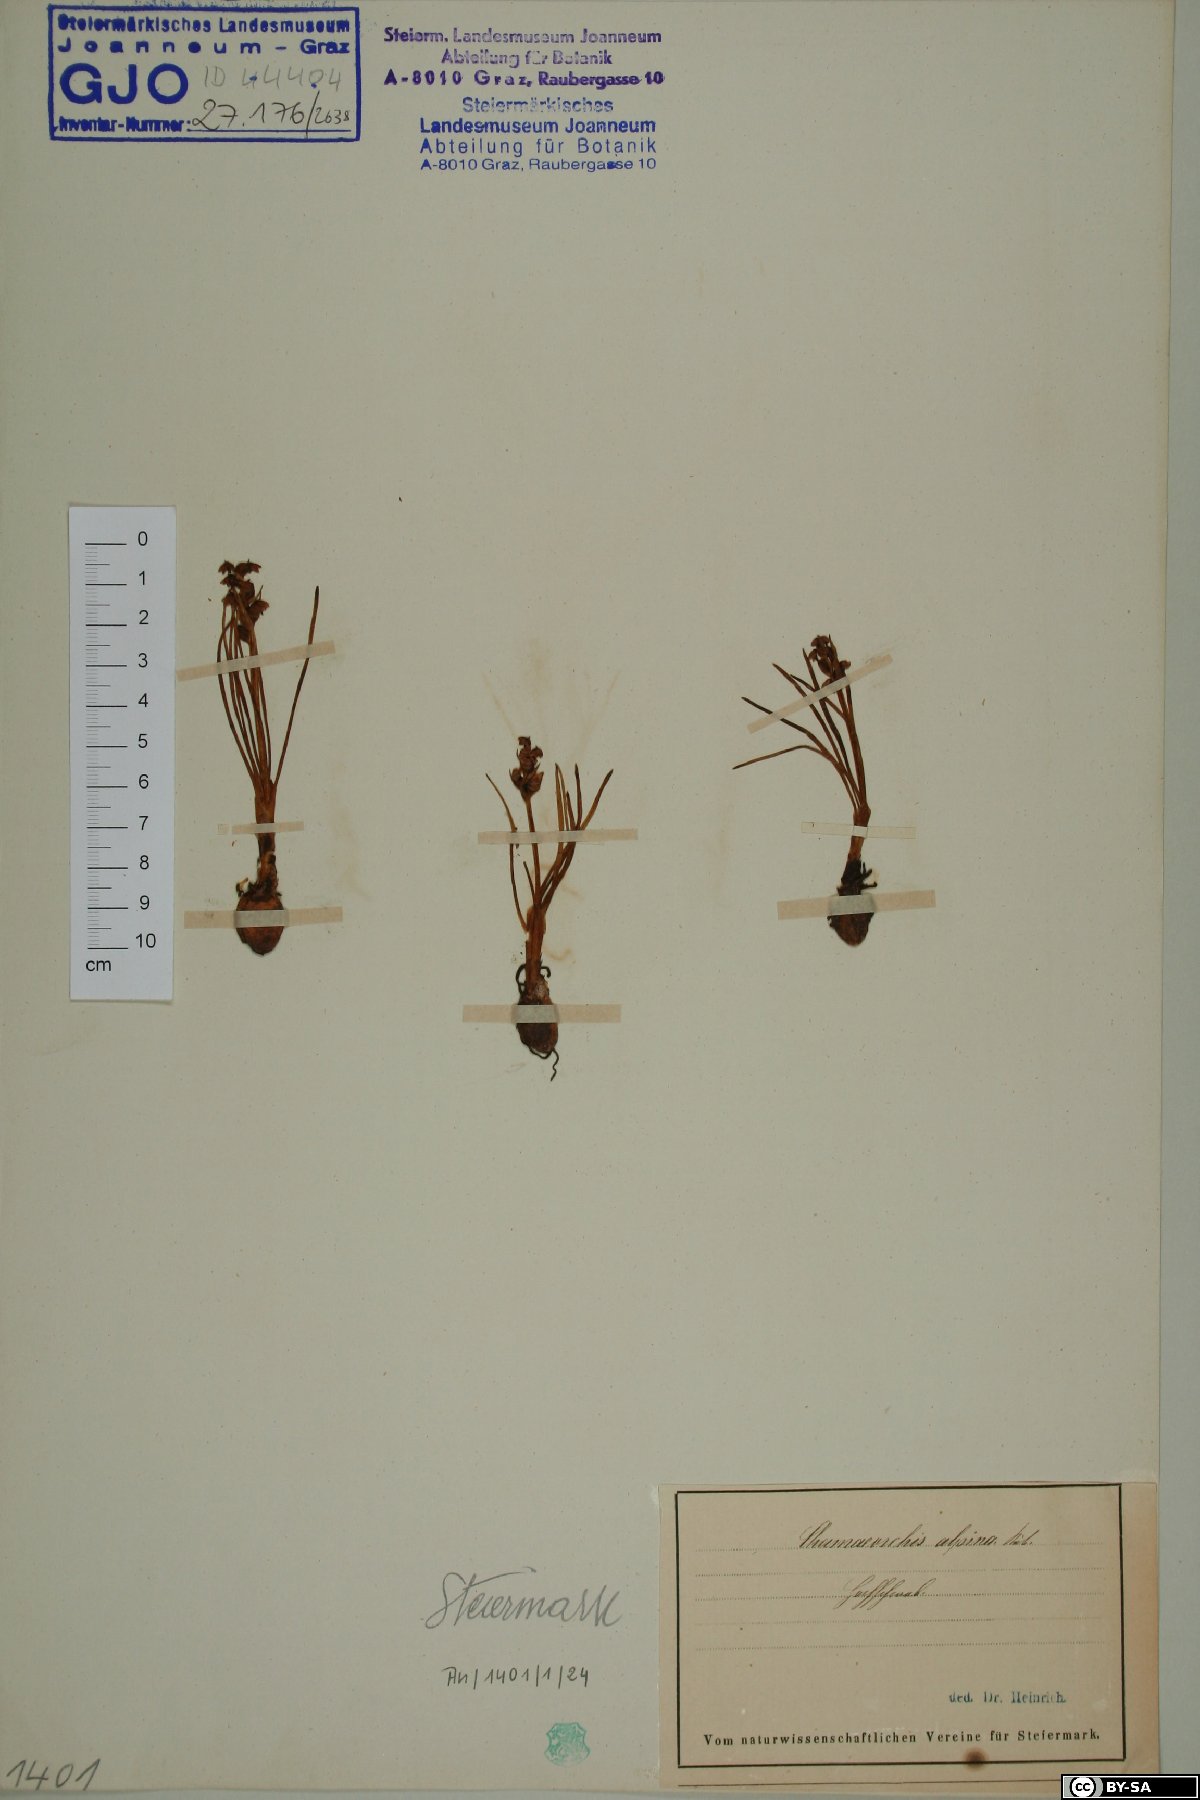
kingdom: Plantae
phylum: Tracheophyta
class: Liliopsida
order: Asparagales
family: Orchidaceae
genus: Chamorchis
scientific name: Chamorchis alpina
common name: Alpine chamorchis
